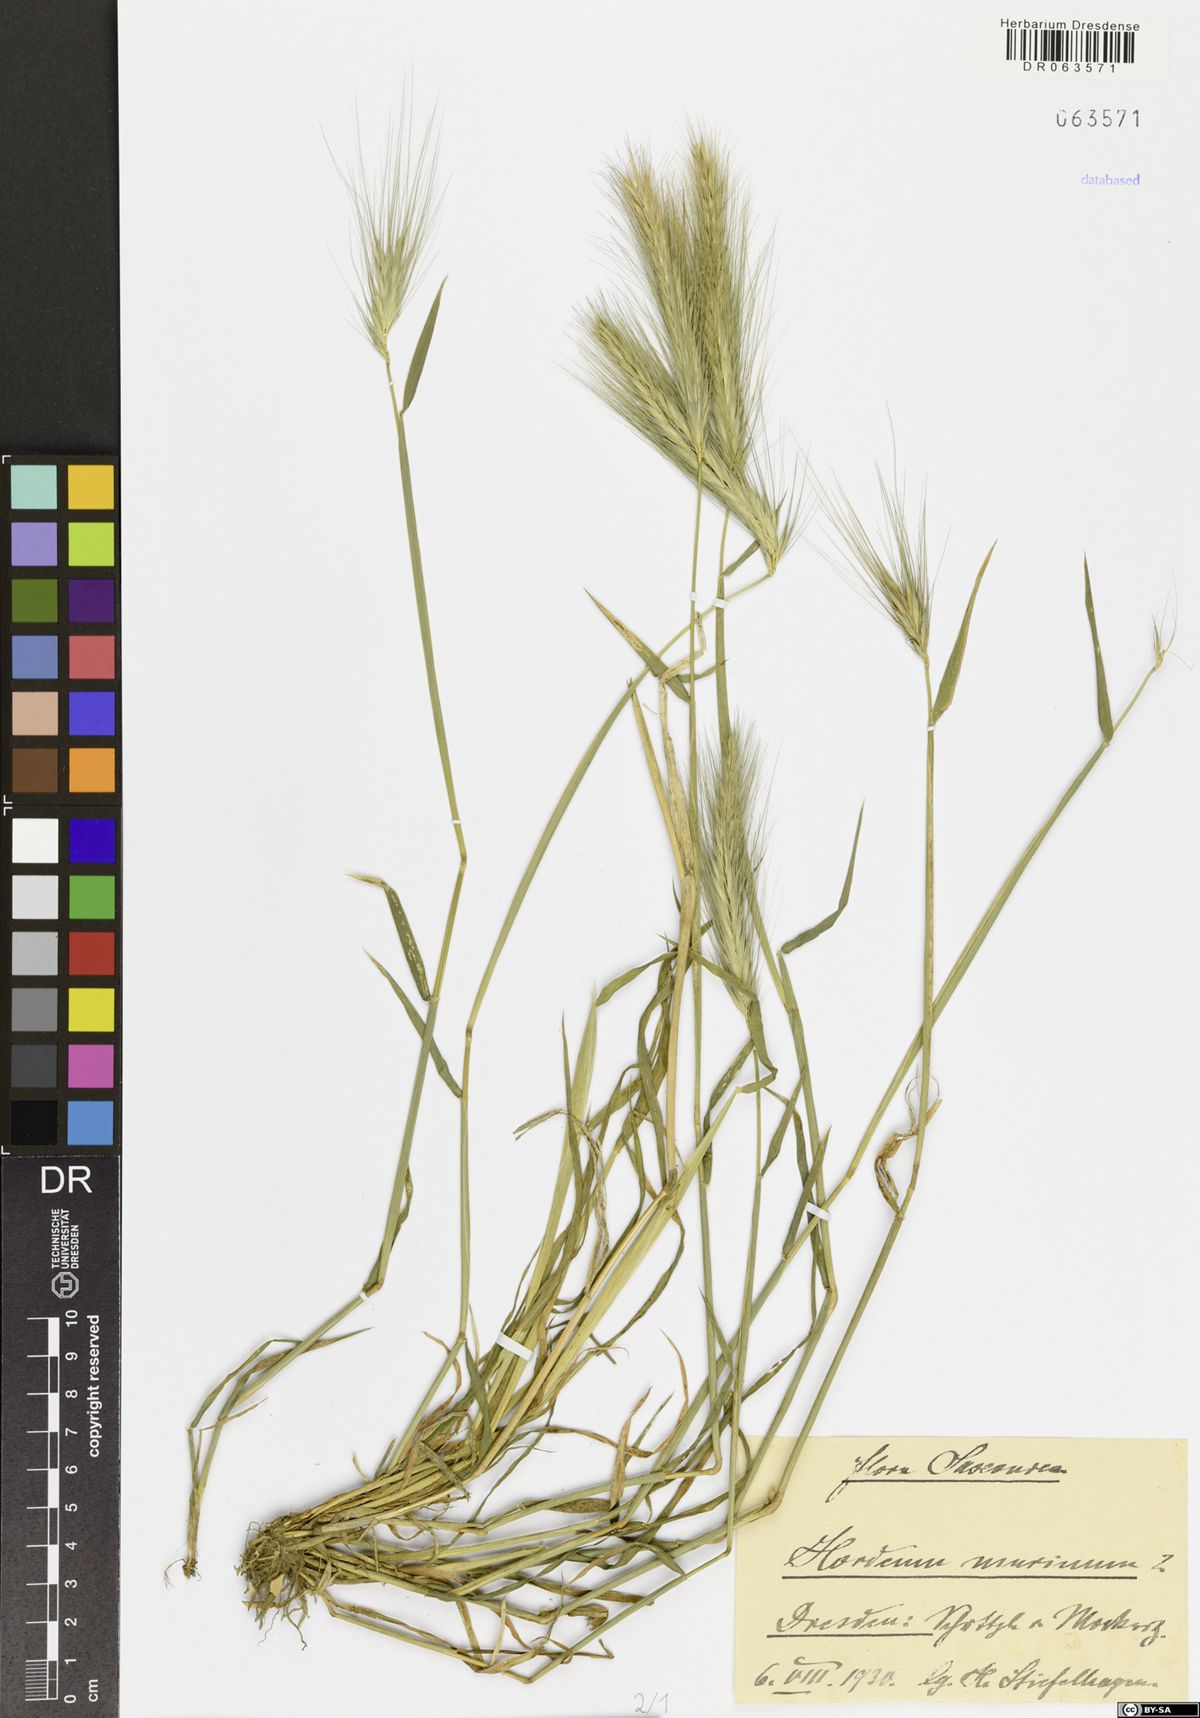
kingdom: Plantae
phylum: Tracheophyta
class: Liliopsida
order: Poales
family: Poaceae
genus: Hordeum
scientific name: Hordeum murinum
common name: Wall barley
